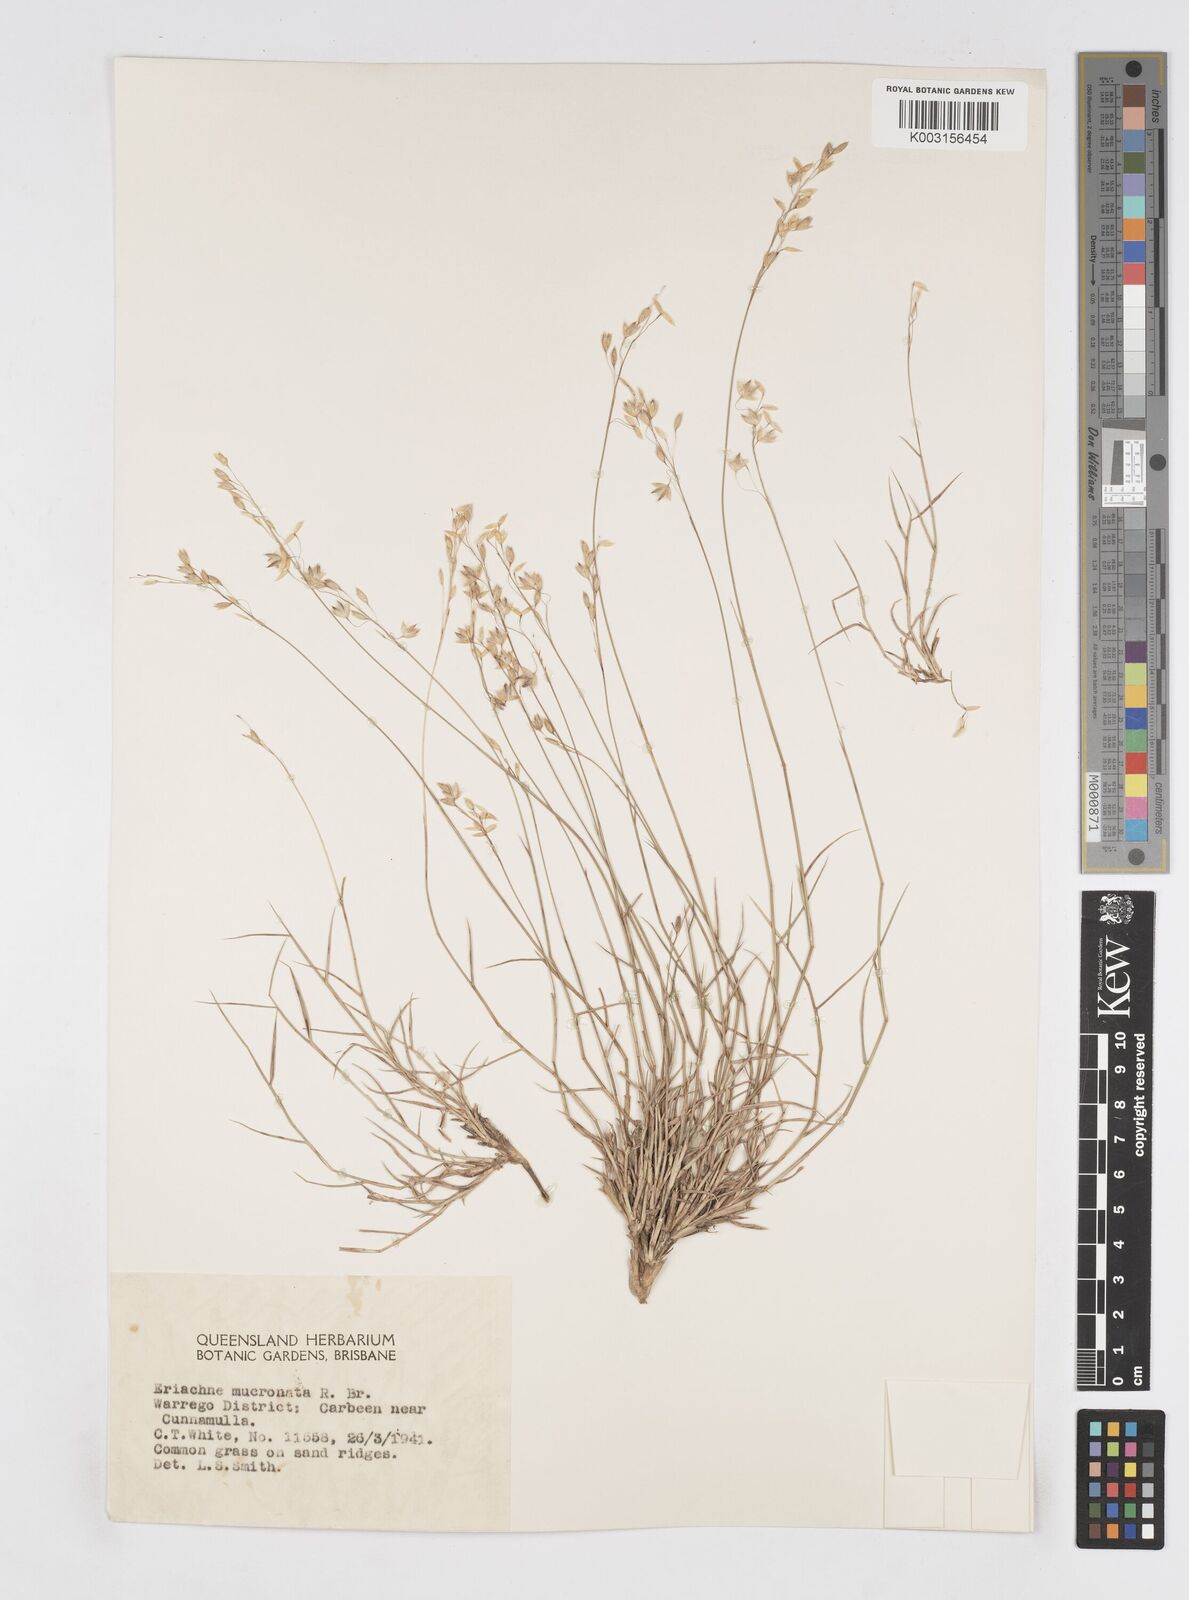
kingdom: Plantae
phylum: Tracheophyta
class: Liliopsida
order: Poales
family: Poaceae
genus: Eriachne
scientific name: Eriachne mucronata
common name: Mountain wanderrie grass
